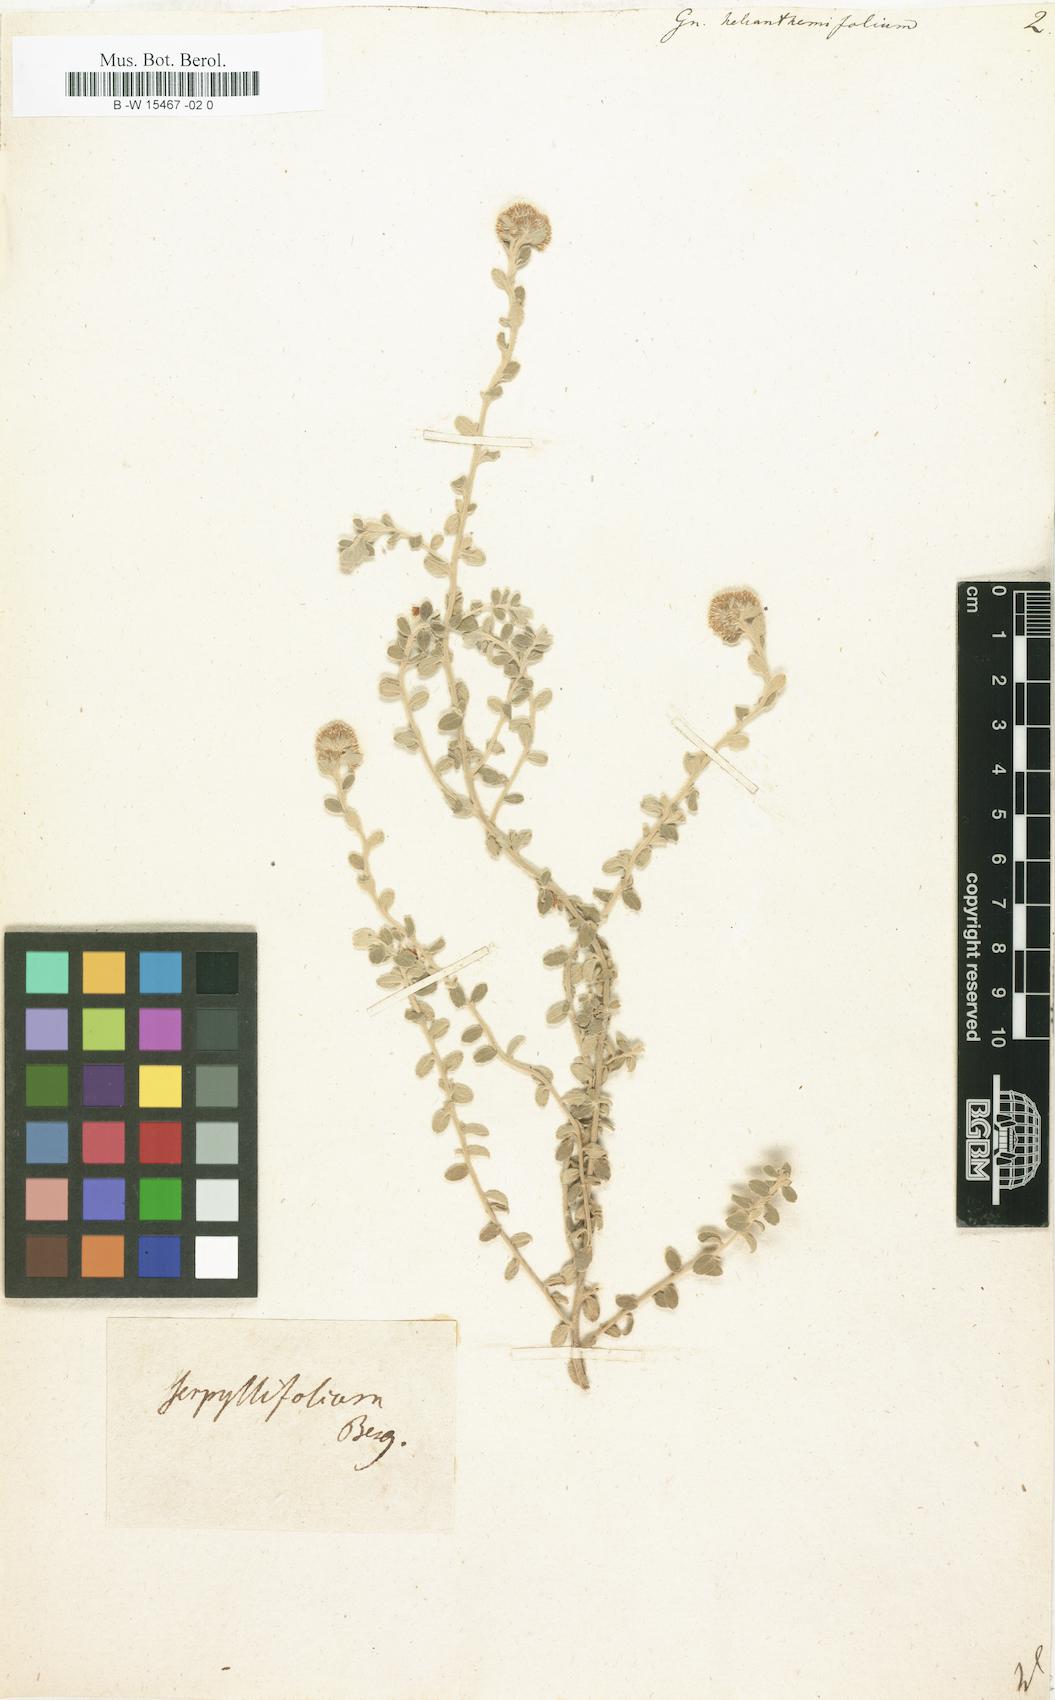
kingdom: Plantae
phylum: Tracheophyta
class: Magnoliopsida
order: Asterales
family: Asteraceae
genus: Helichrysum
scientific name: Helichrysum helianthemifolium
